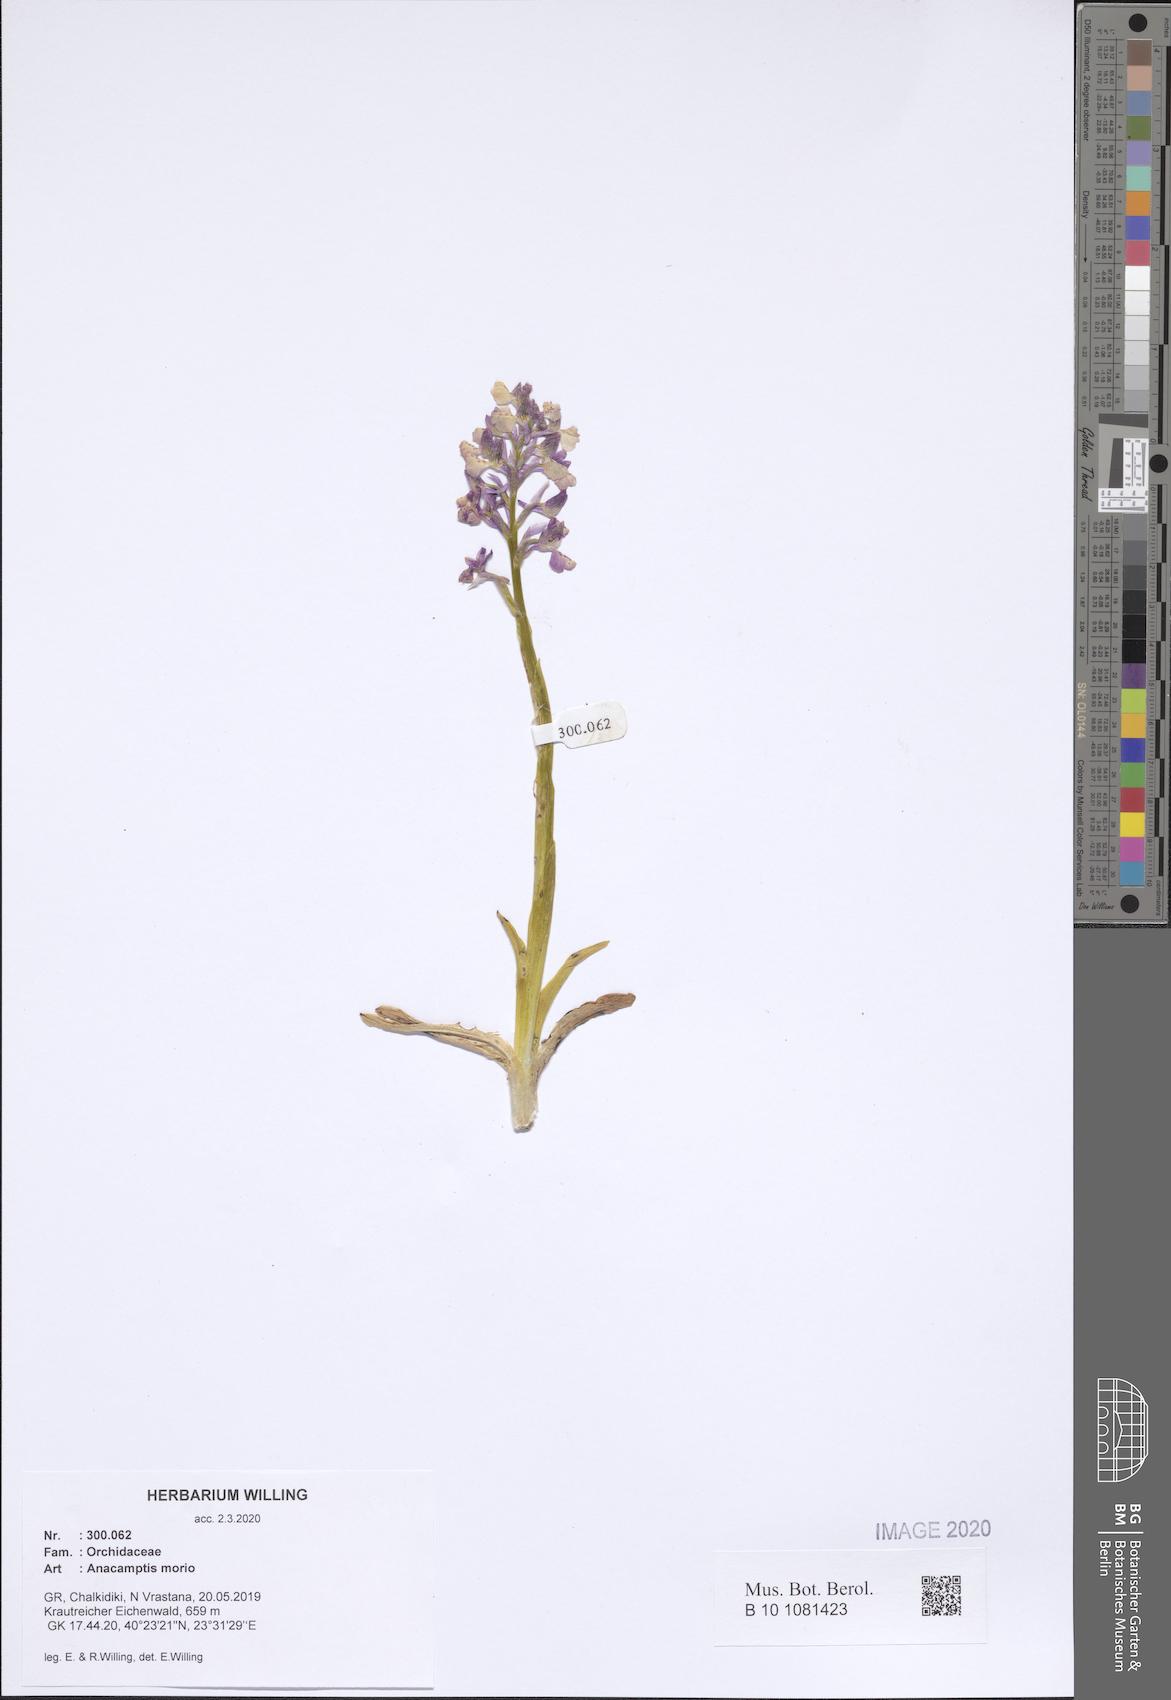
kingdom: Plantae
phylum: Tracheophyta
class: Liliopsida
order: Asparagales
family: Orchidaceae
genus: Anacamptis
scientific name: Anacamptis morio
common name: Green-winged orchid
